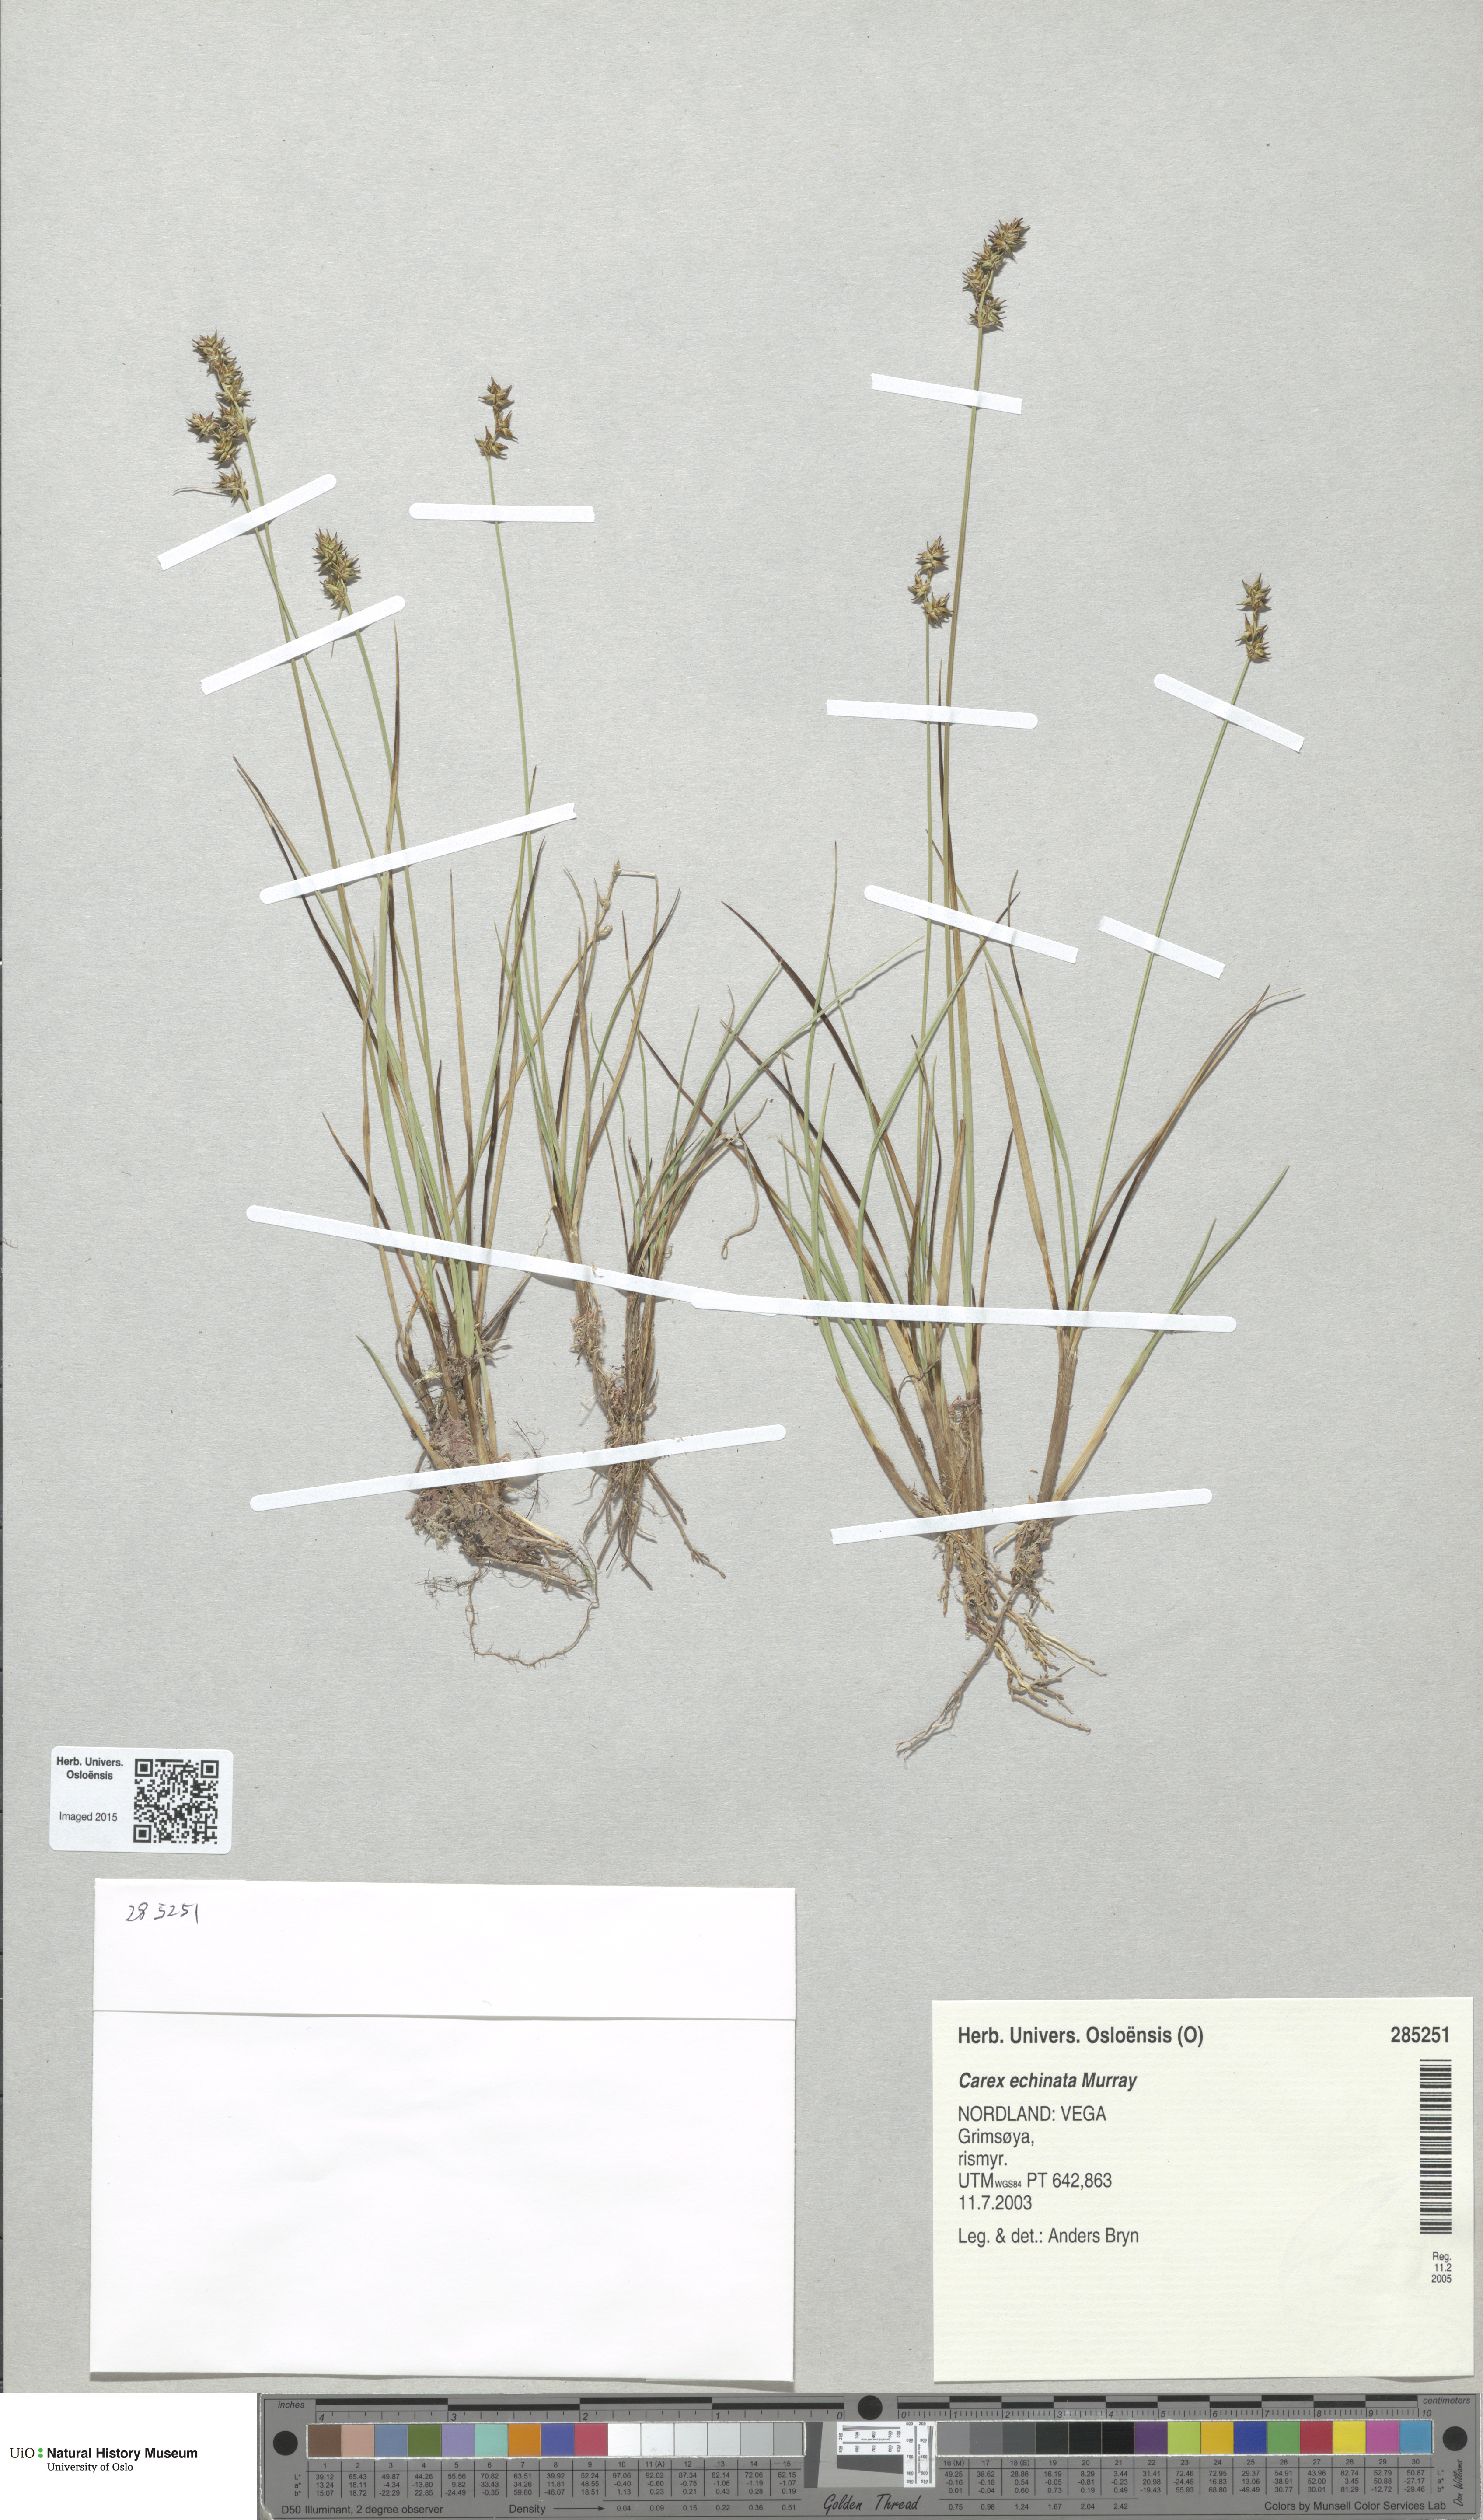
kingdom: Plantae
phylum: Tracheophyta
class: Liliopsida
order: Poales
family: Cyperaceae
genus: Carex
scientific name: Carex echinata
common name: Star sedge
